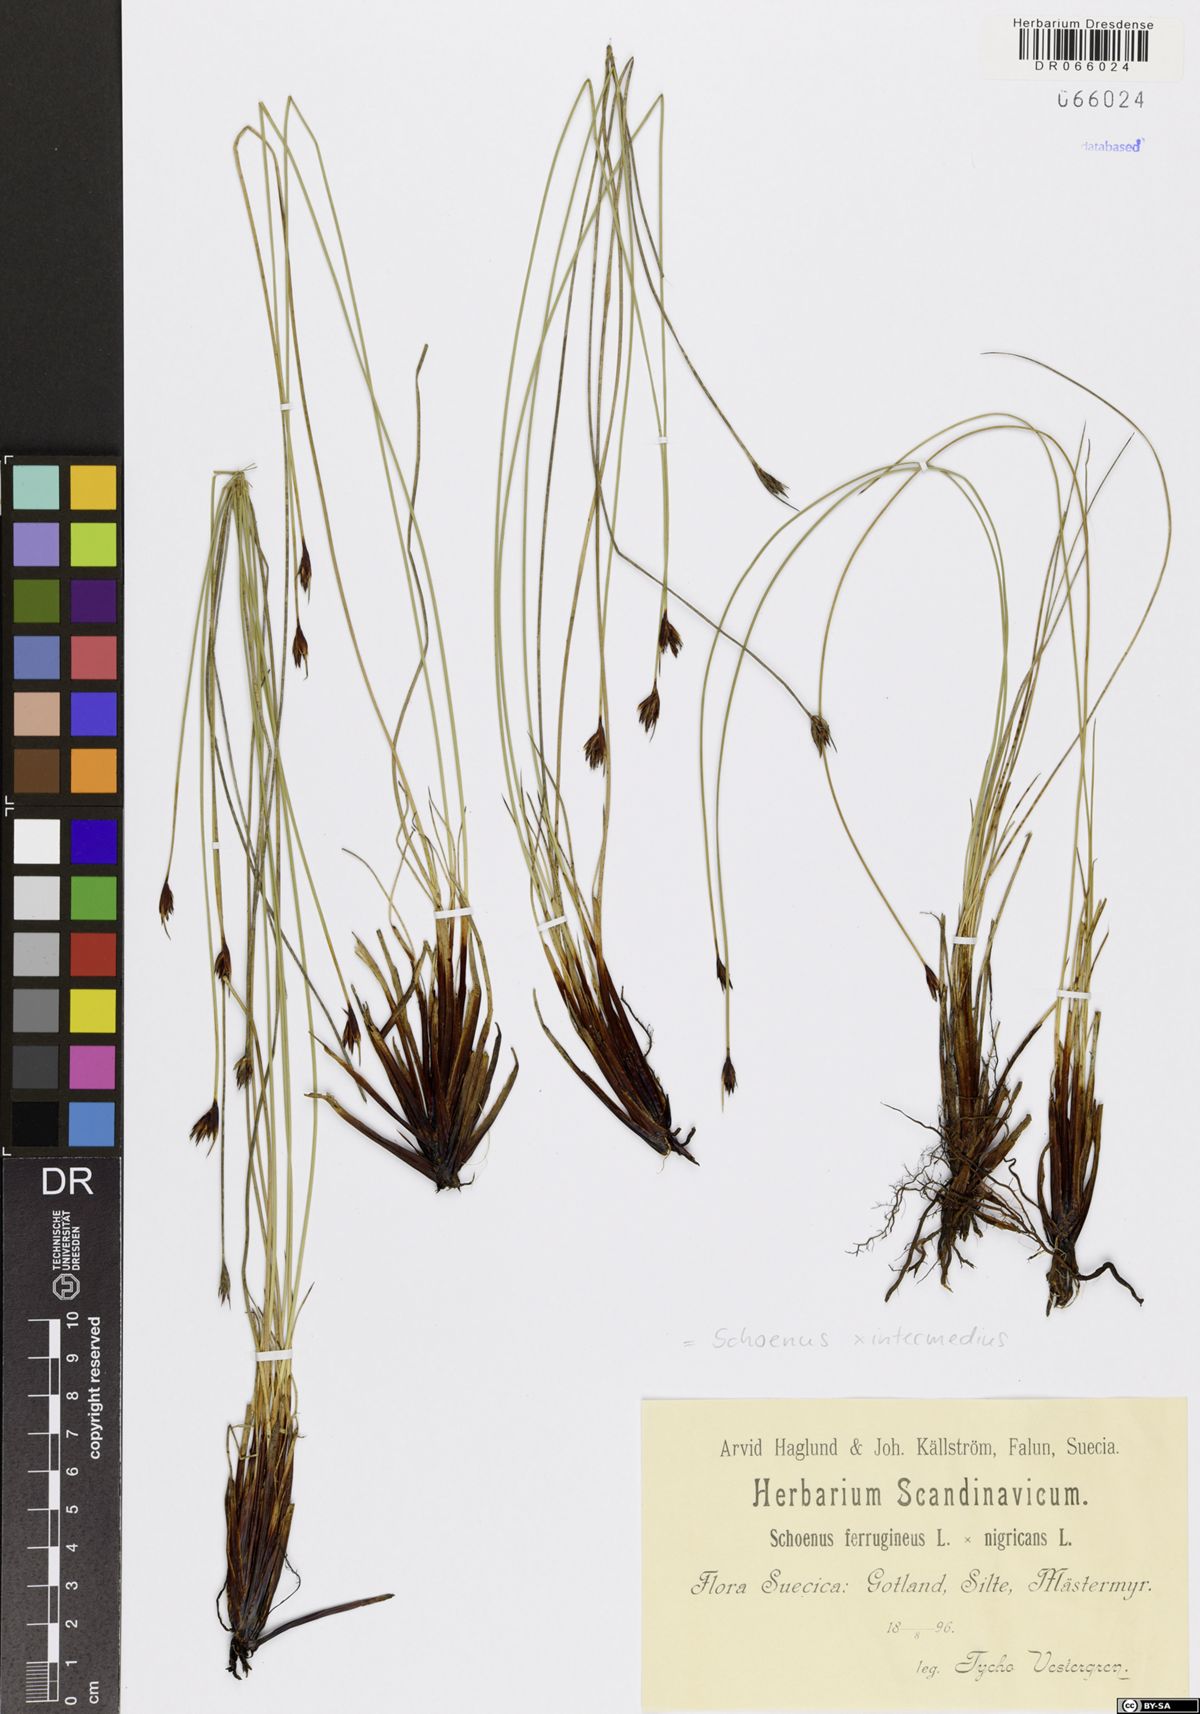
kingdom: Plantae
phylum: Tracheophyta
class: Liliopsida
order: Poales
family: Cyperaceae
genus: Schoenus
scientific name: Schoenus scheuchzeri
